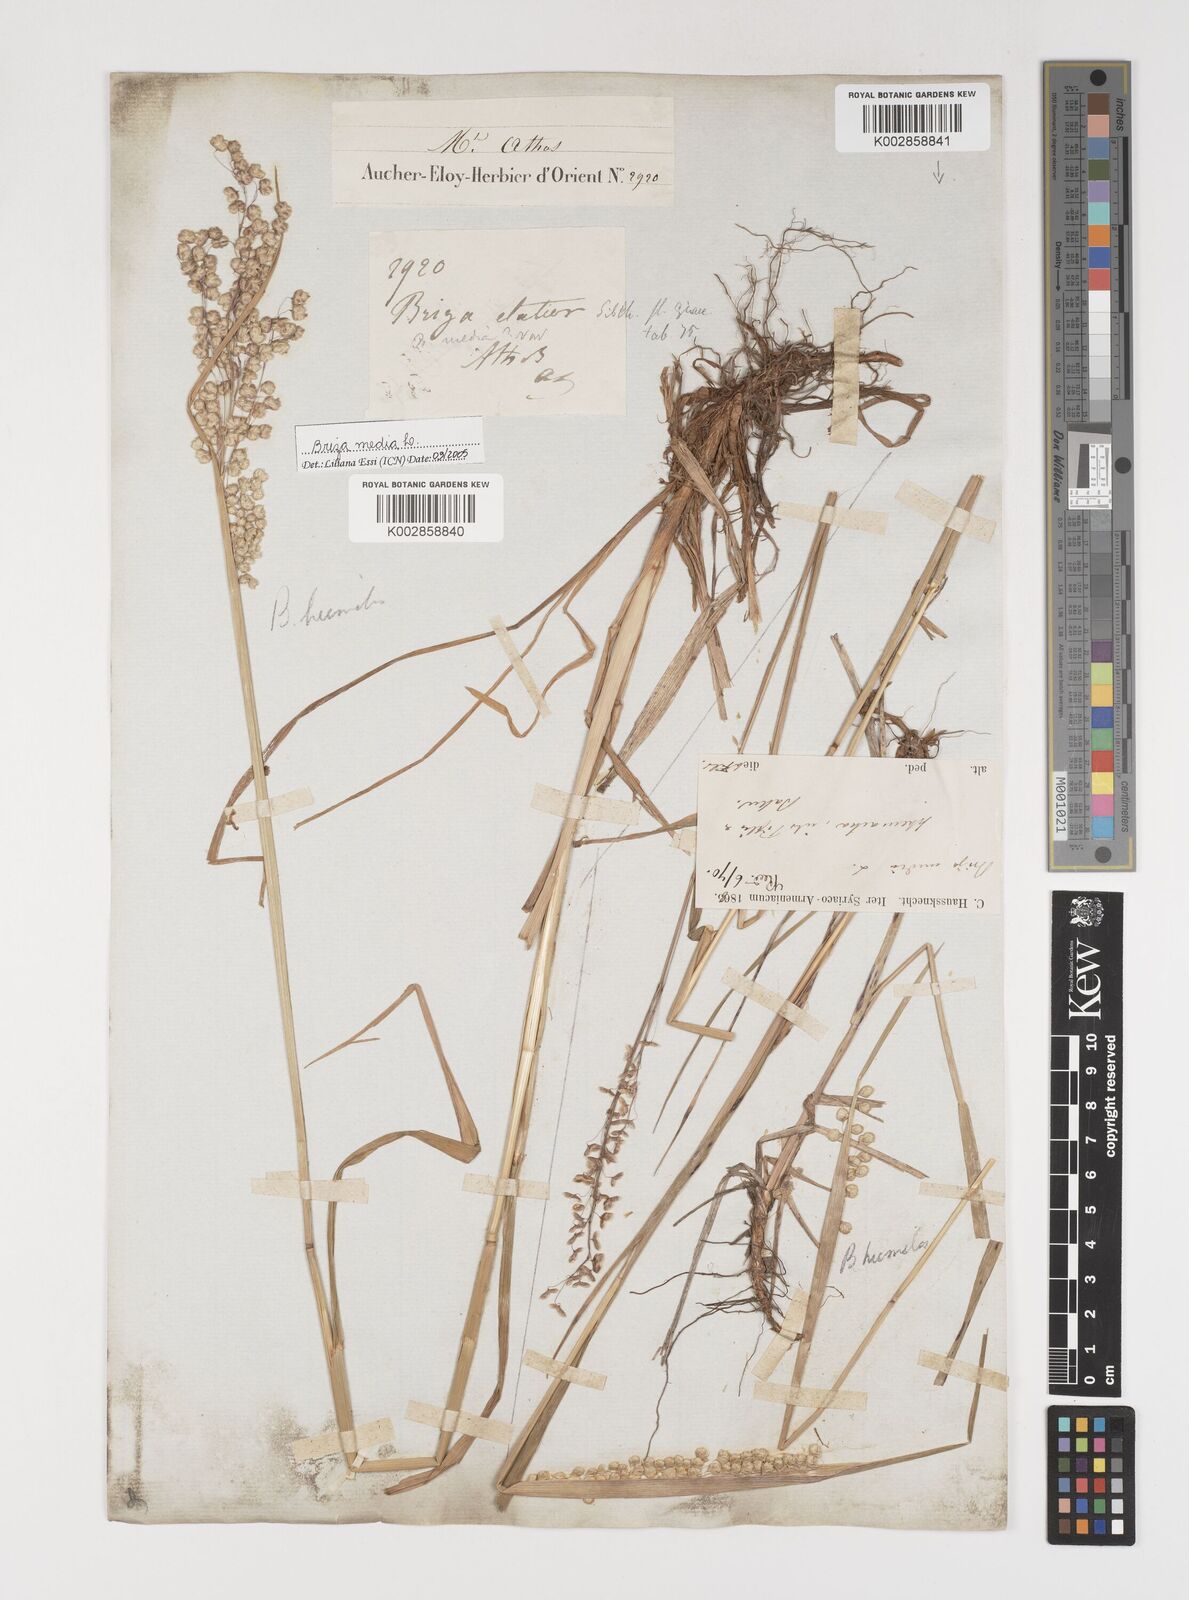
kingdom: Plantae
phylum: Tracheophyta
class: Liliopsida
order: Poales
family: Poaceae
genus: Briza
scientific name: Briza media
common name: Quaking grass
